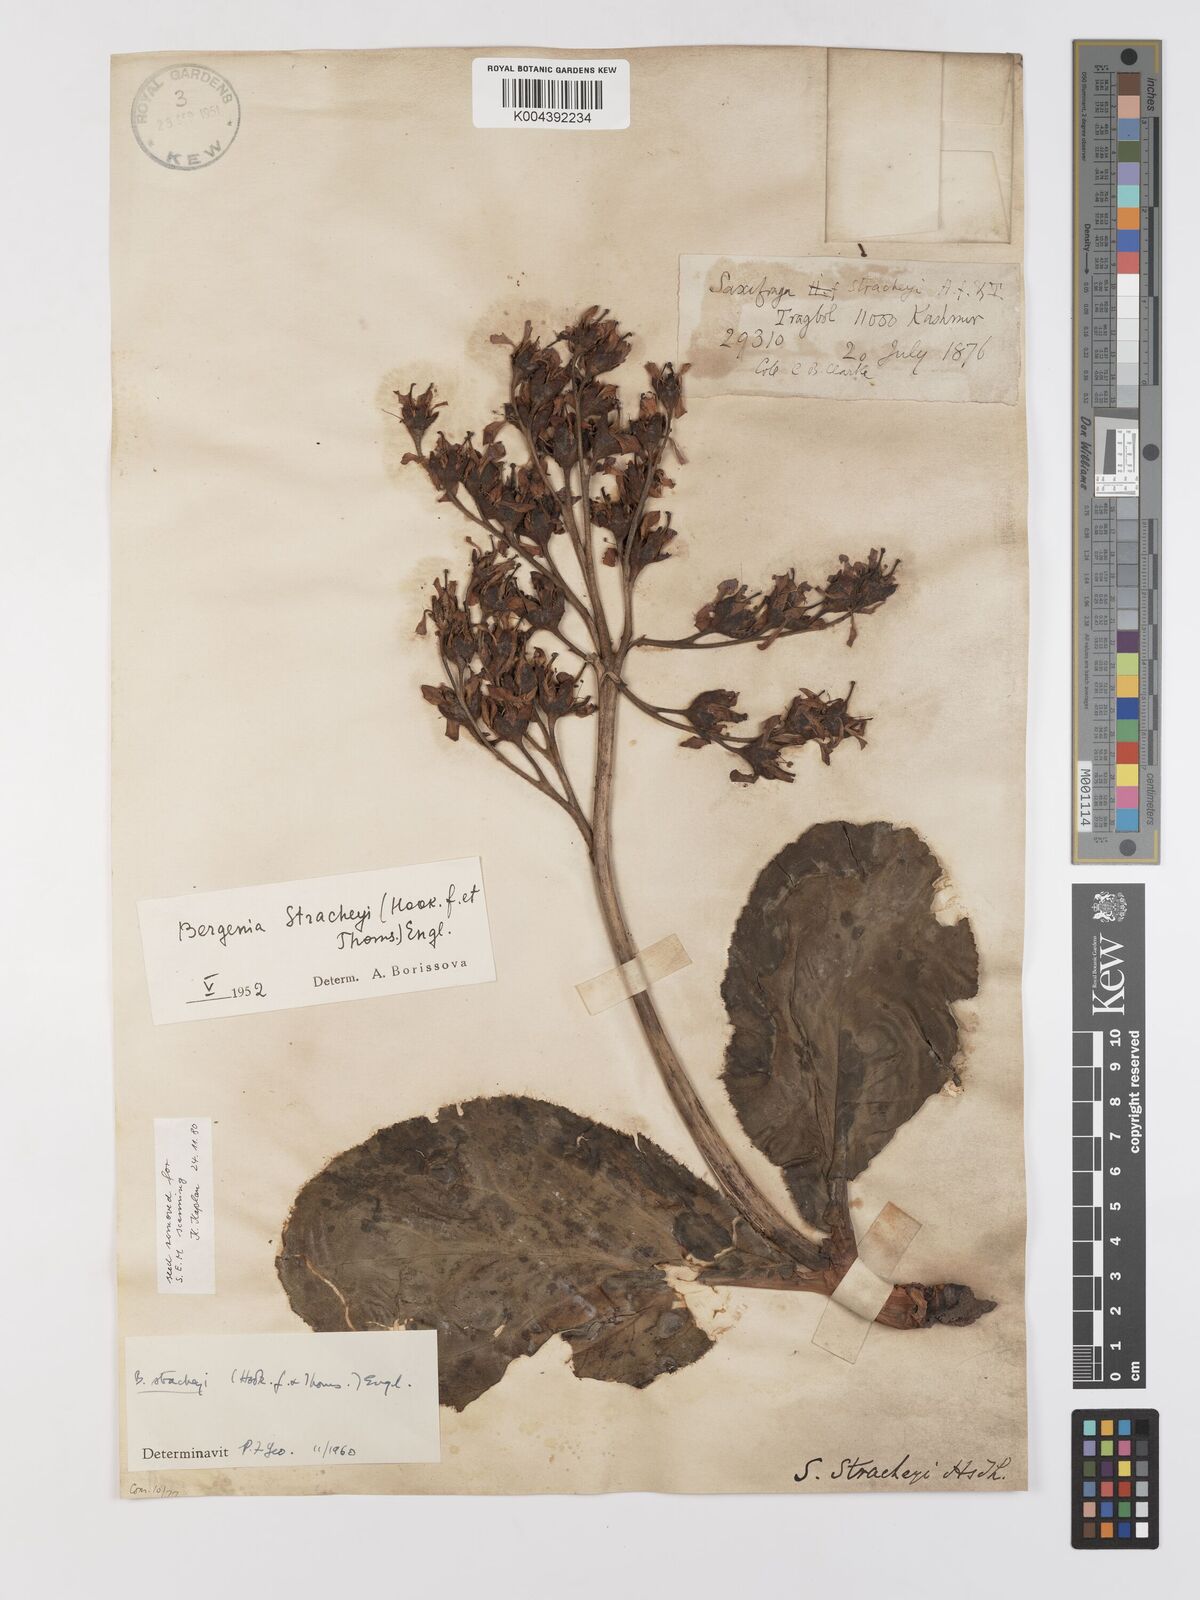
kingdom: Plantae
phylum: Tracheophyta
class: Magnoliopsida
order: Saxifragales
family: Saxifragaceae
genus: Bergenia
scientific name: Bergenia stracheyi
